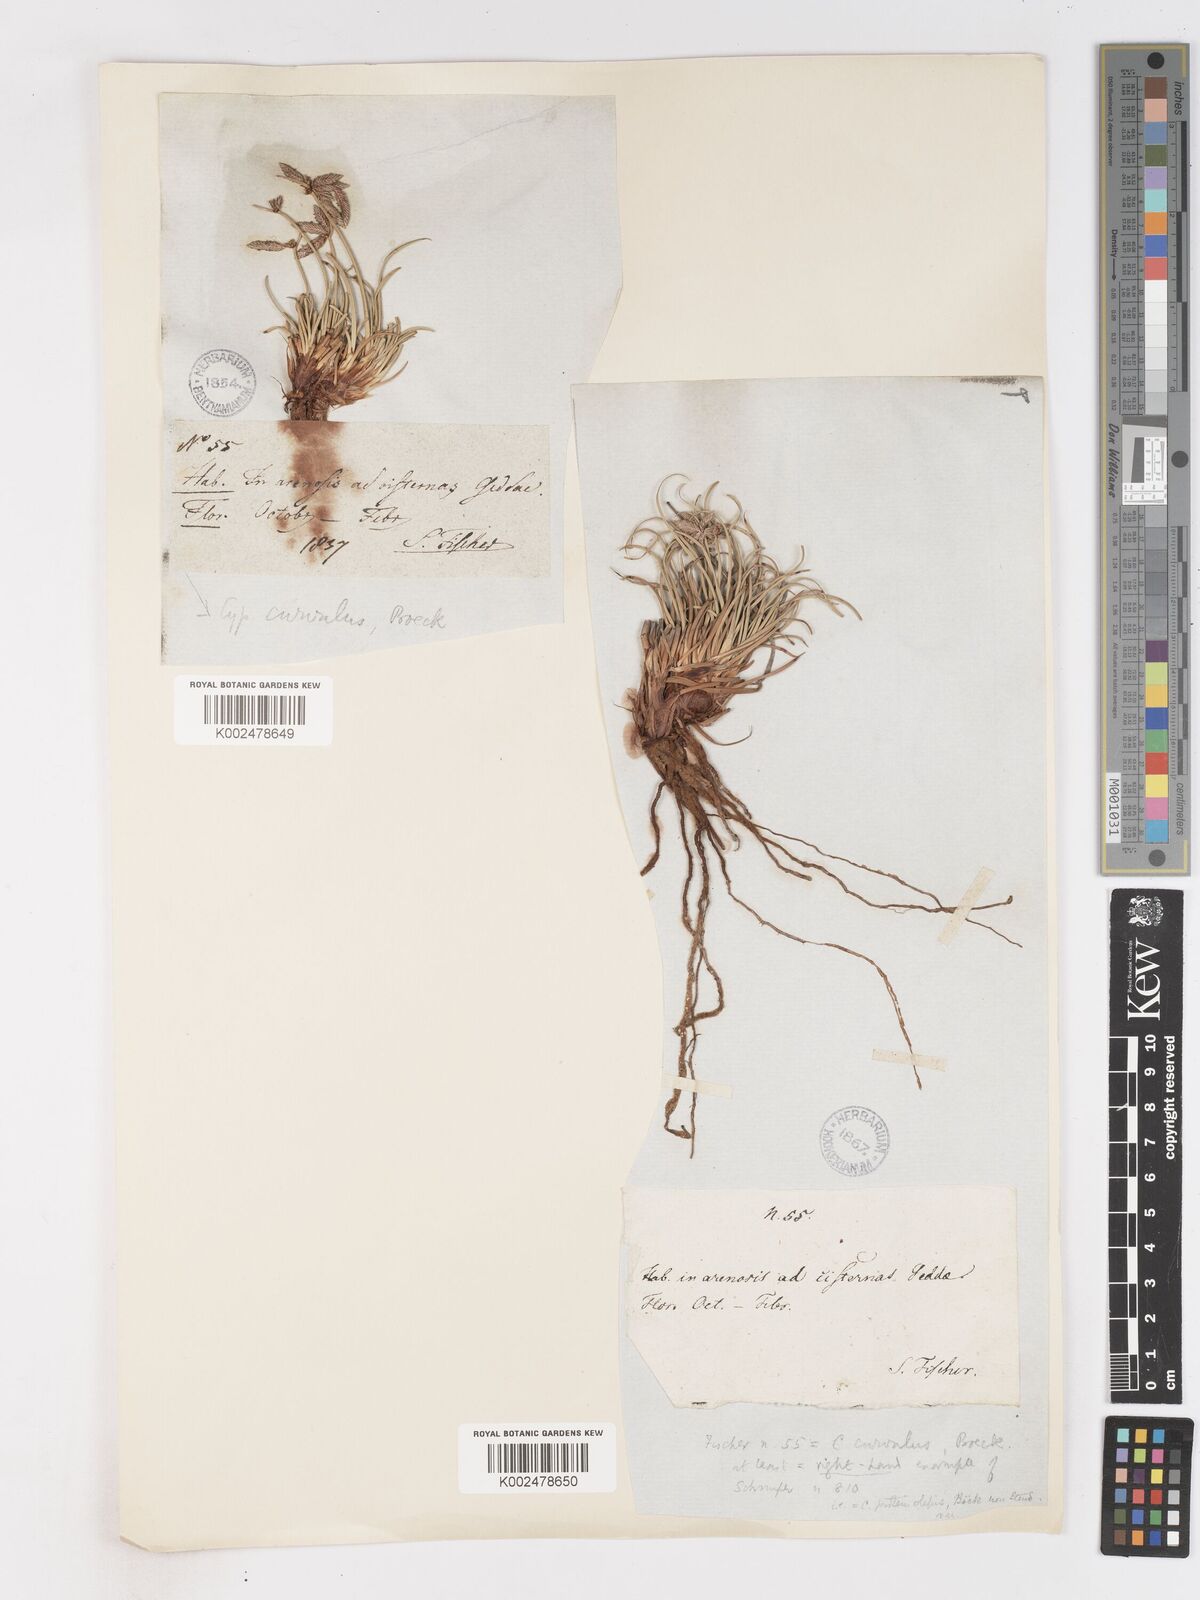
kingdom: Plantae
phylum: Tracheophyta
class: Liliopsida
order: Poales
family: Cyperaceae
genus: Cyperus
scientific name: Cyperus conglomeratus
